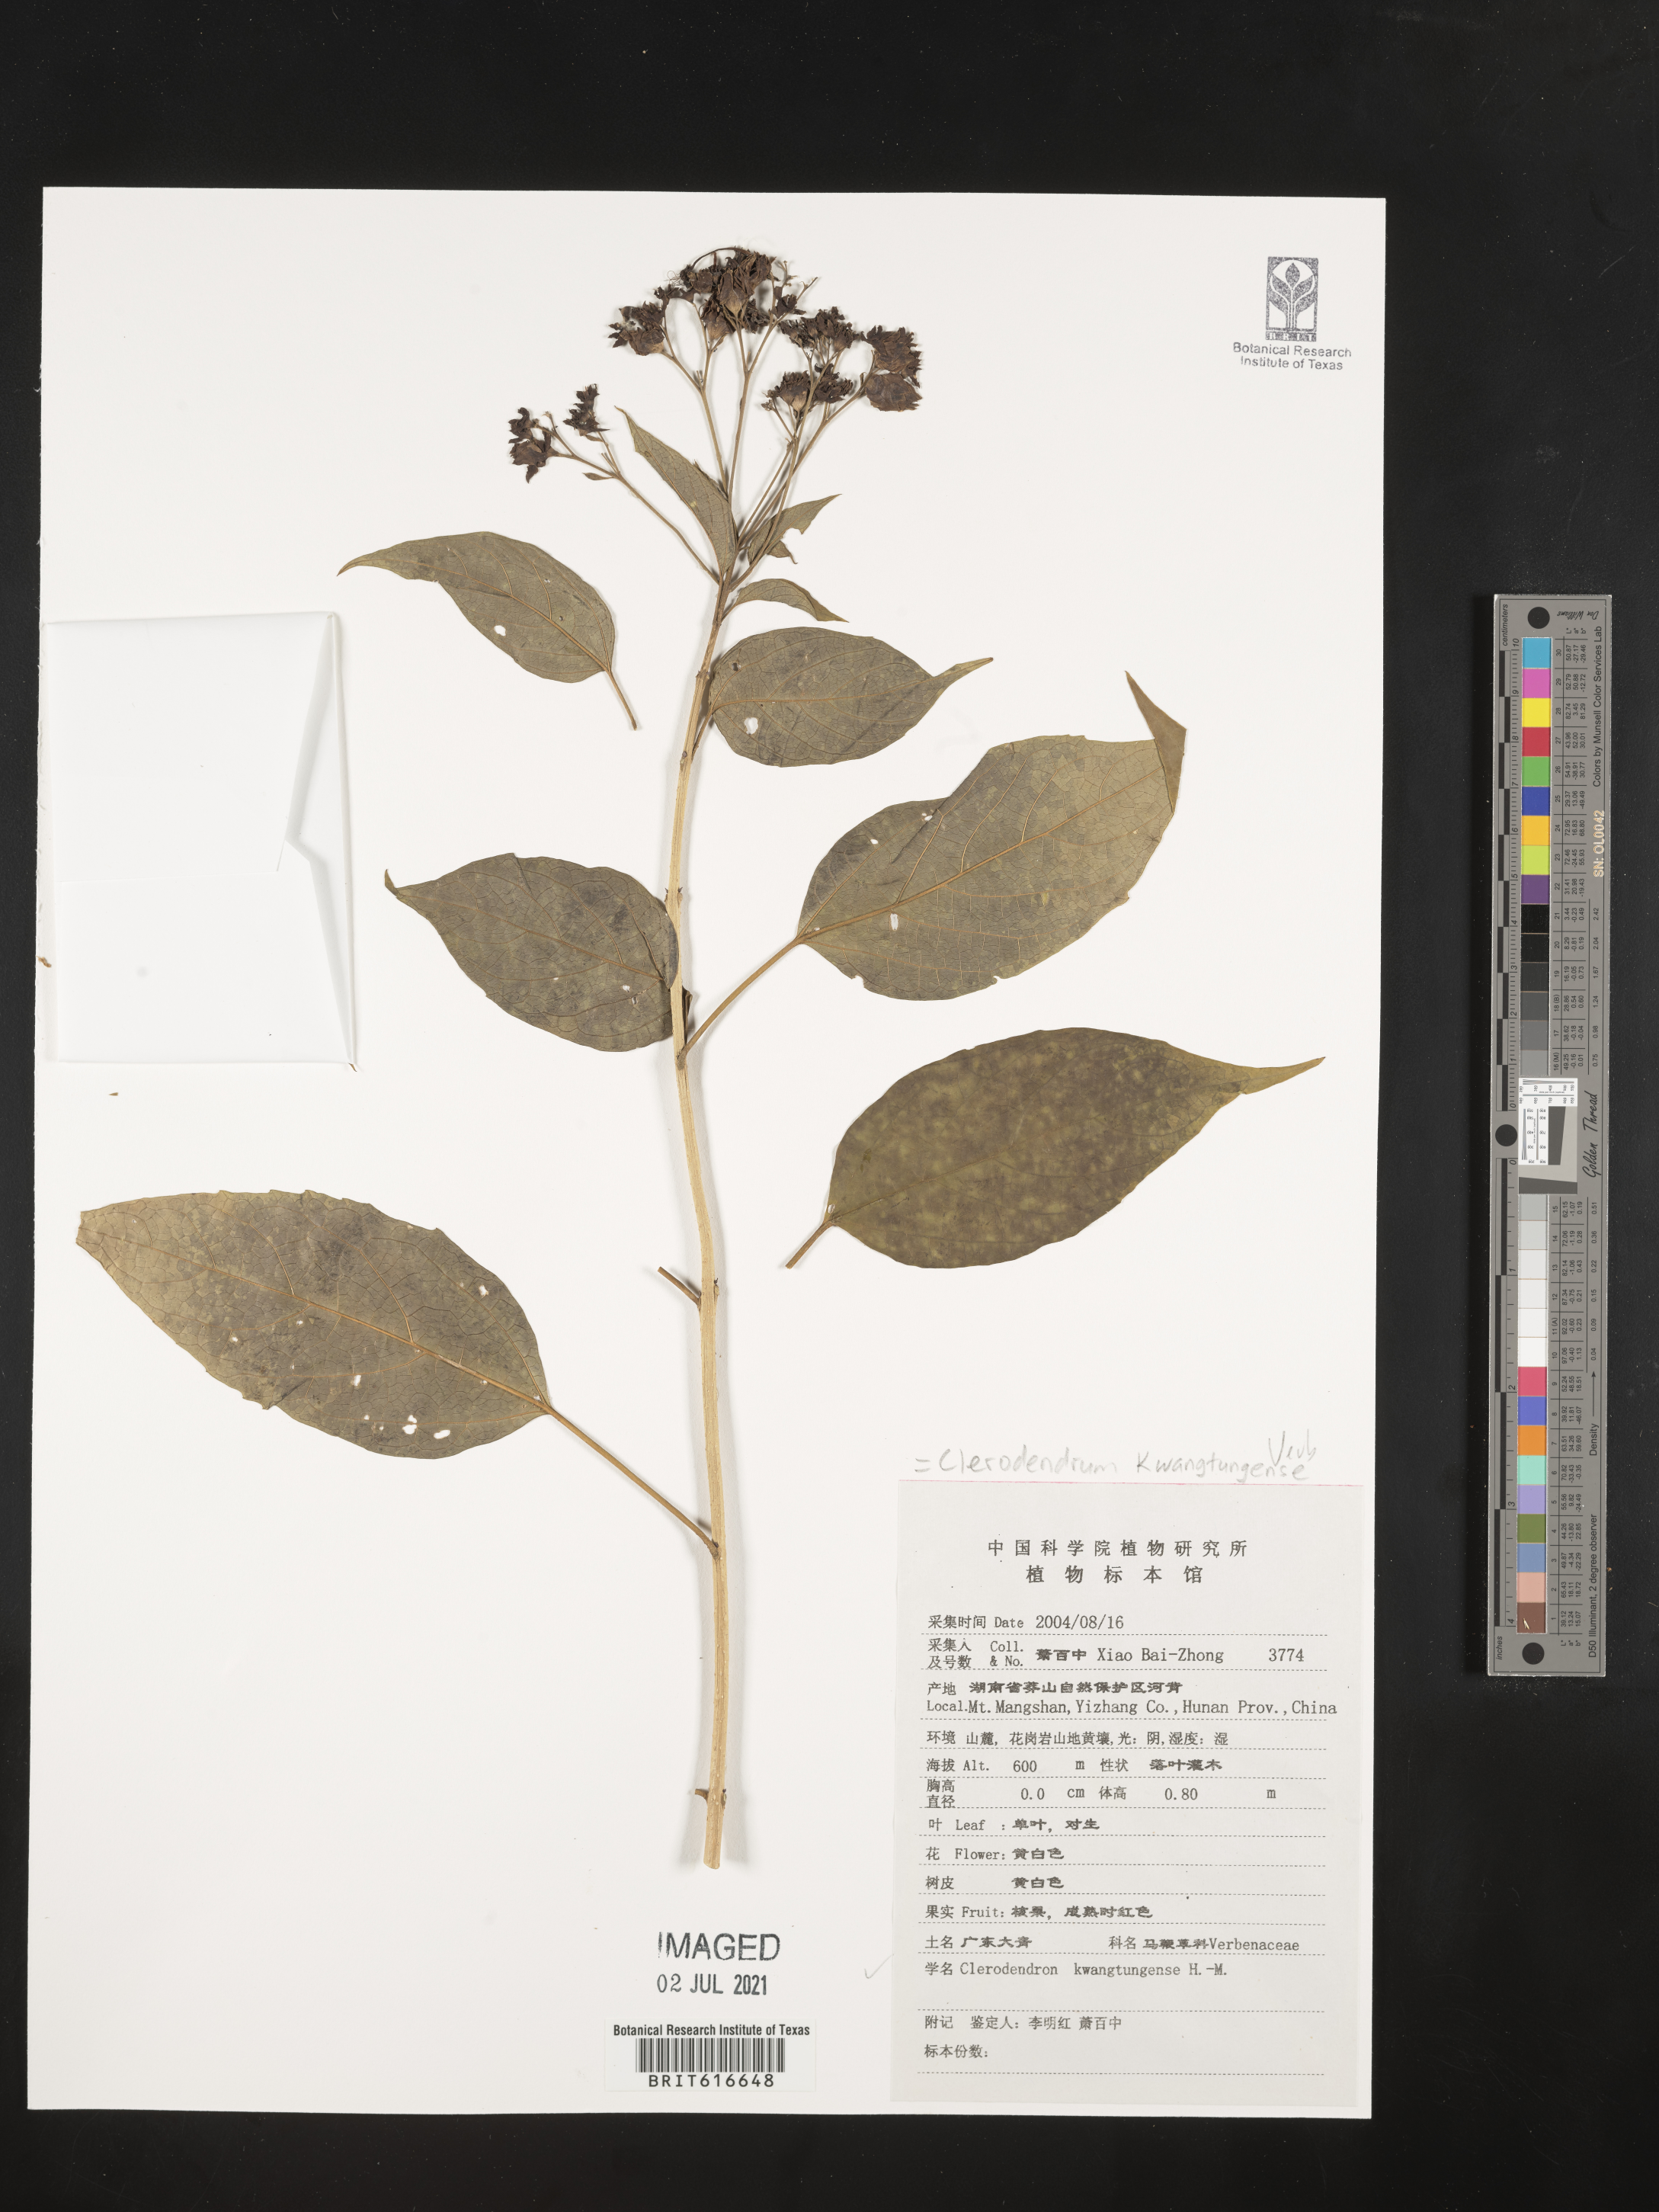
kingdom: Plantae
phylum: Tracheophyta
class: Magnoliopsida
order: Lamiales
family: Lamiaceae
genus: Clerodendrum
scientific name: Clerodendrum kwangtungense
